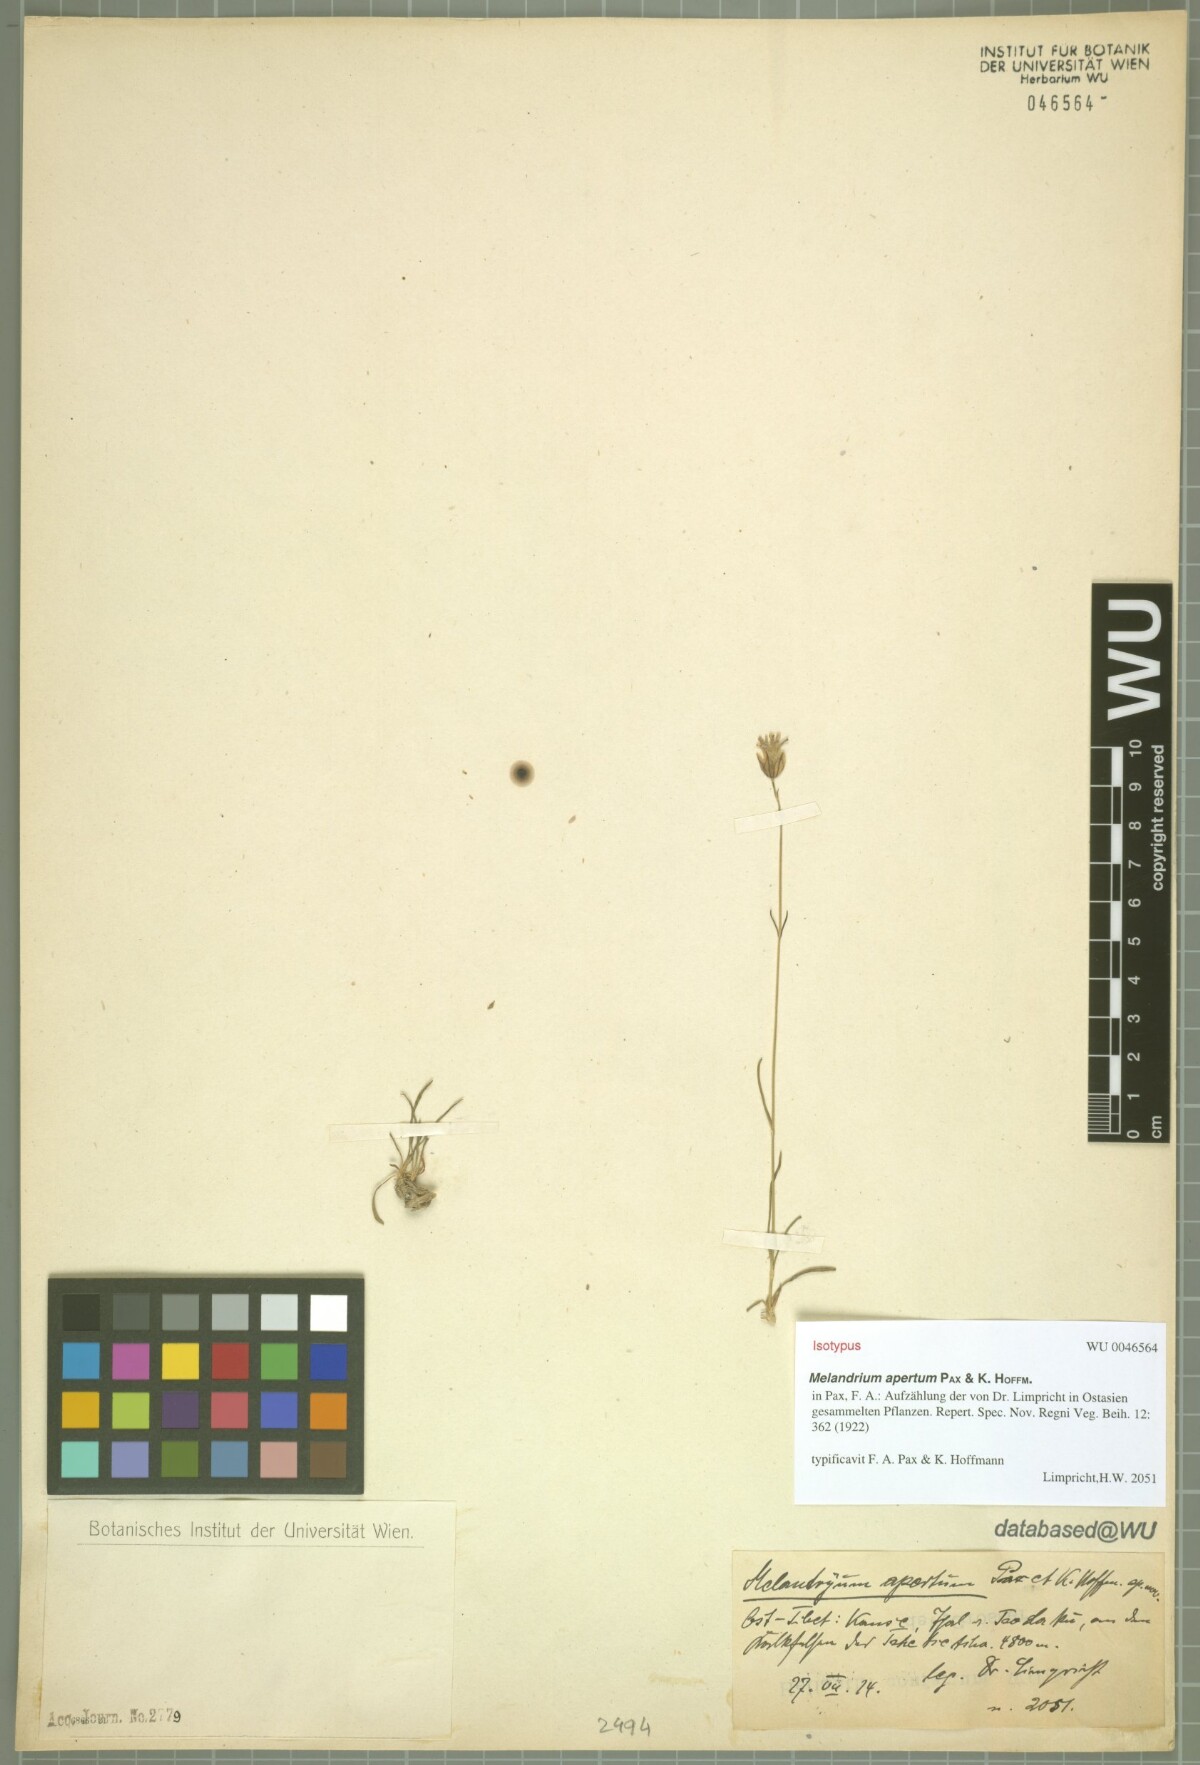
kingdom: Plantae
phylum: Tracheophyta
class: Magnoliopsida
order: Caryophyllales
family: Caryophyllaceae
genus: Silene
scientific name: Silene himalayensis
